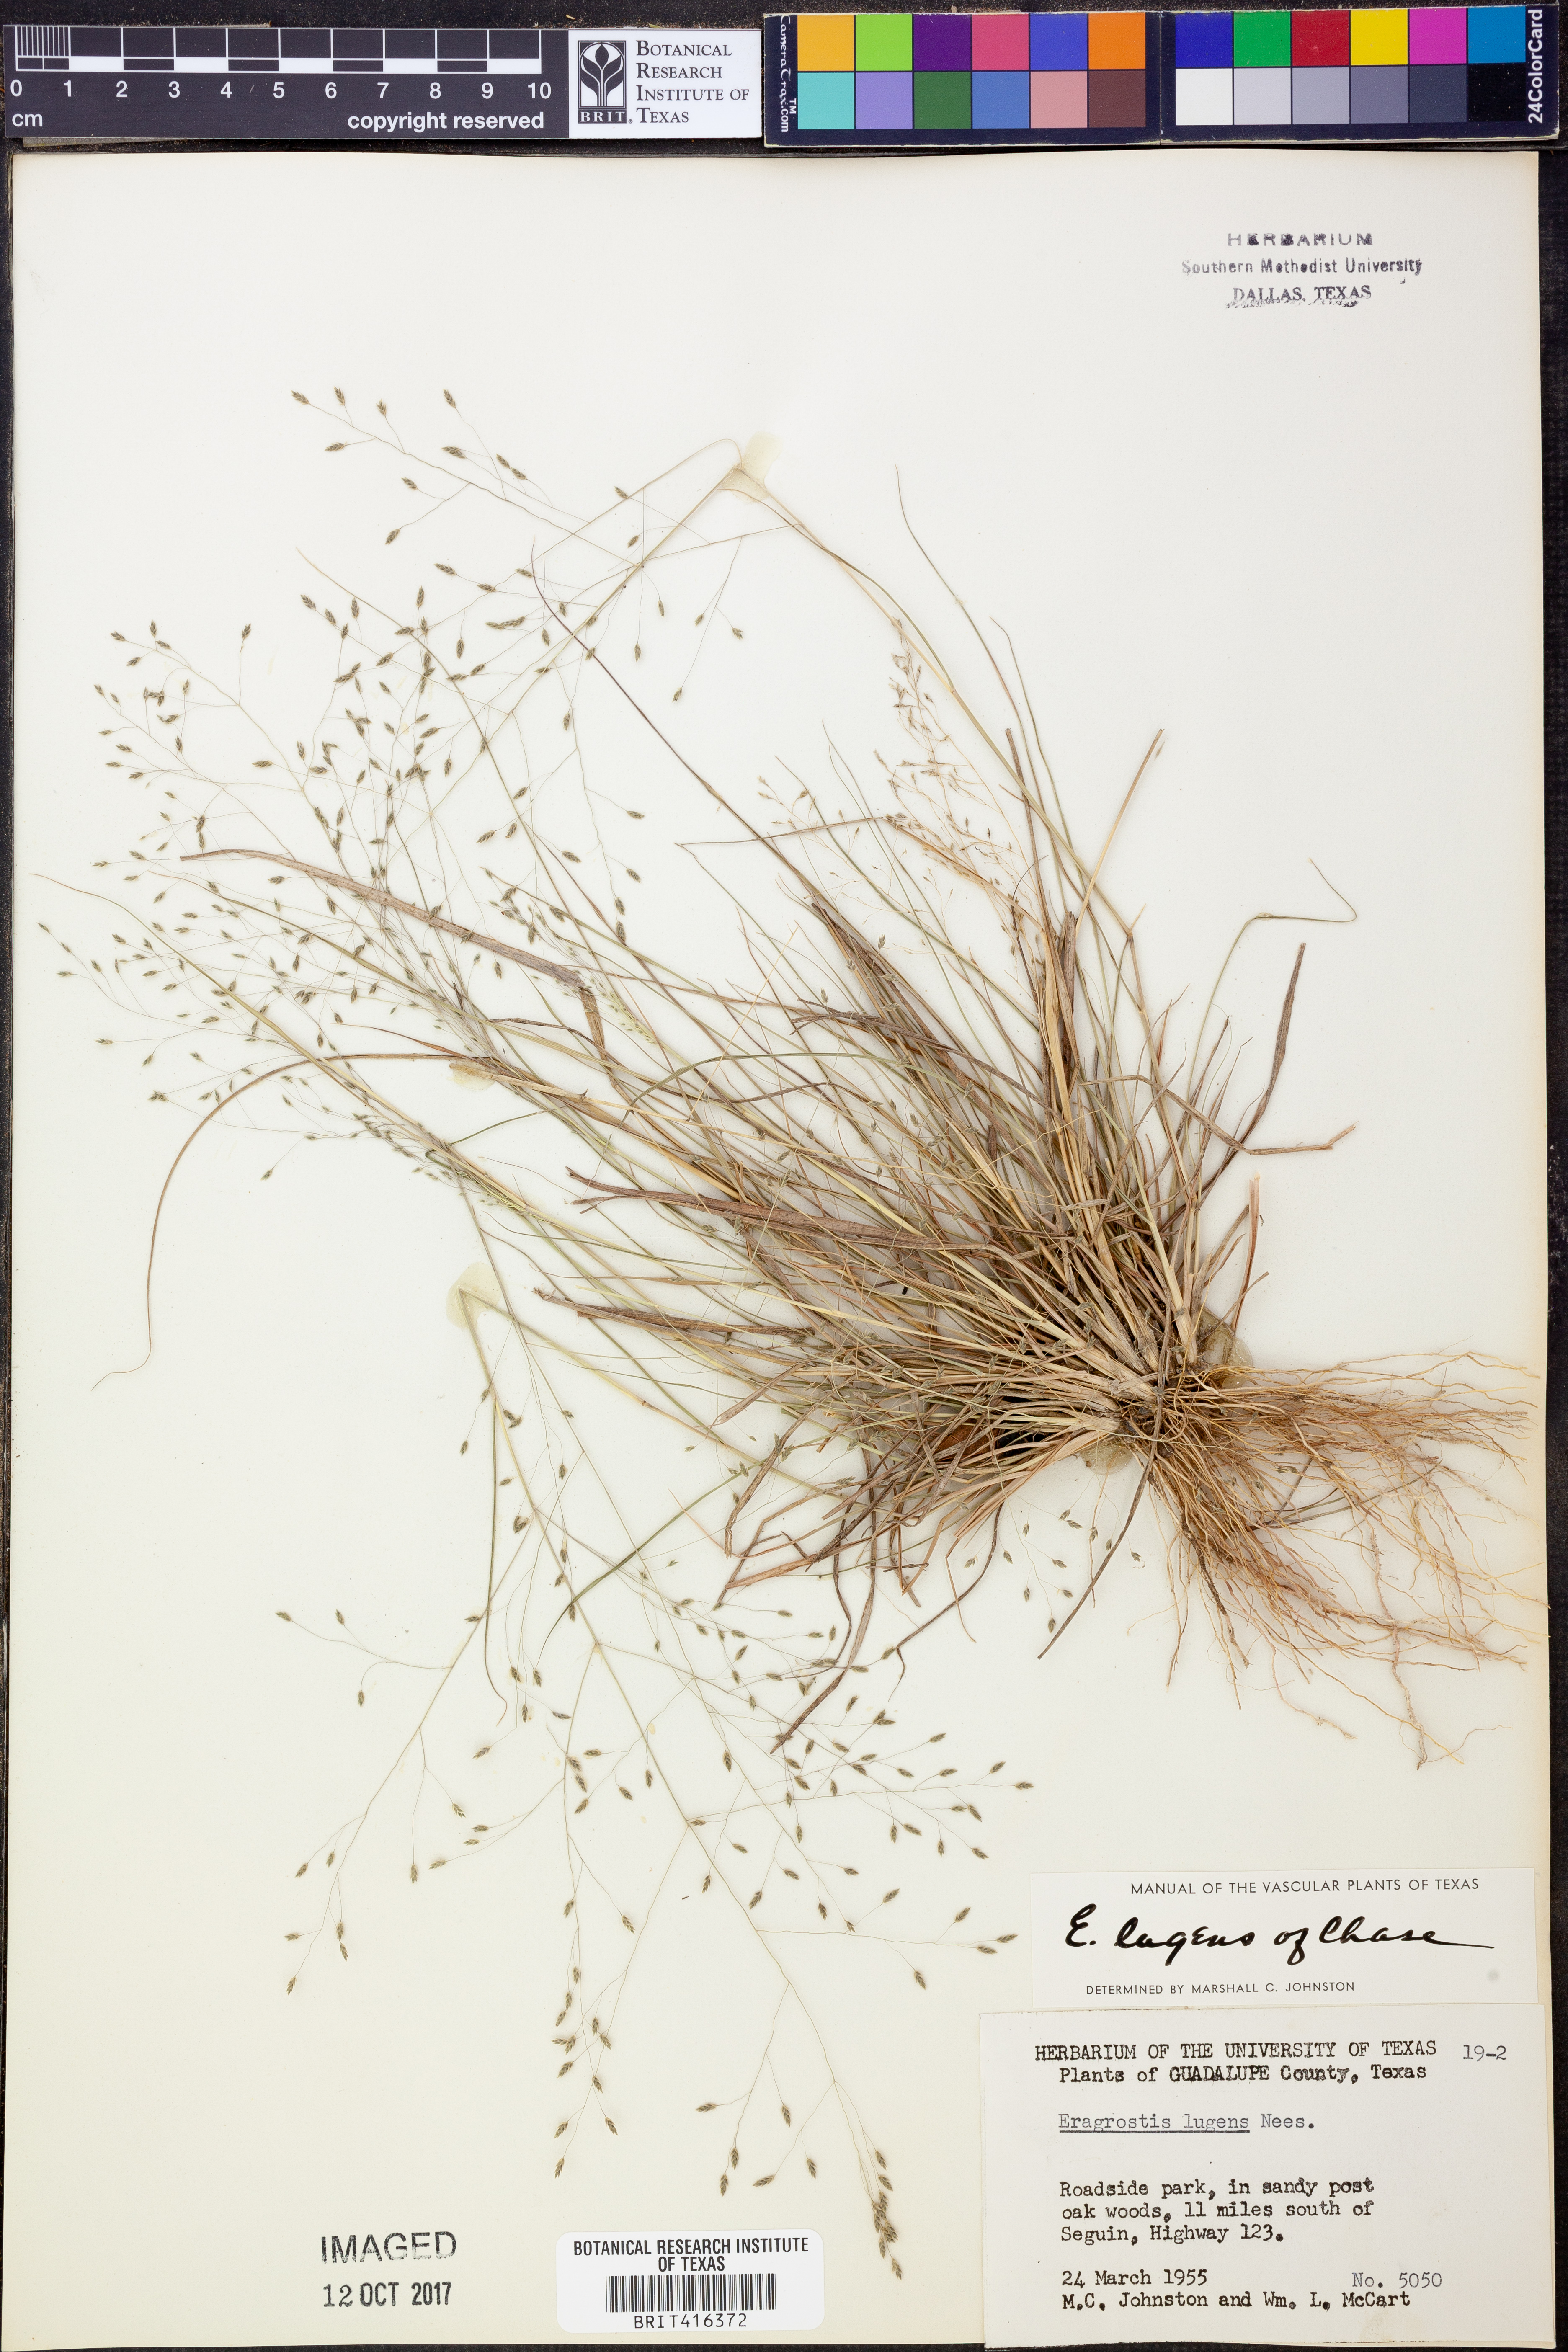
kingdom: Plantae
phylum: Tracheophyta
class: Liliopsida
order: Poales
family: Poaceae
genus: Eragrostis
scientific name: Eragrostis capillaris
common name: Hair-like lovegrass
